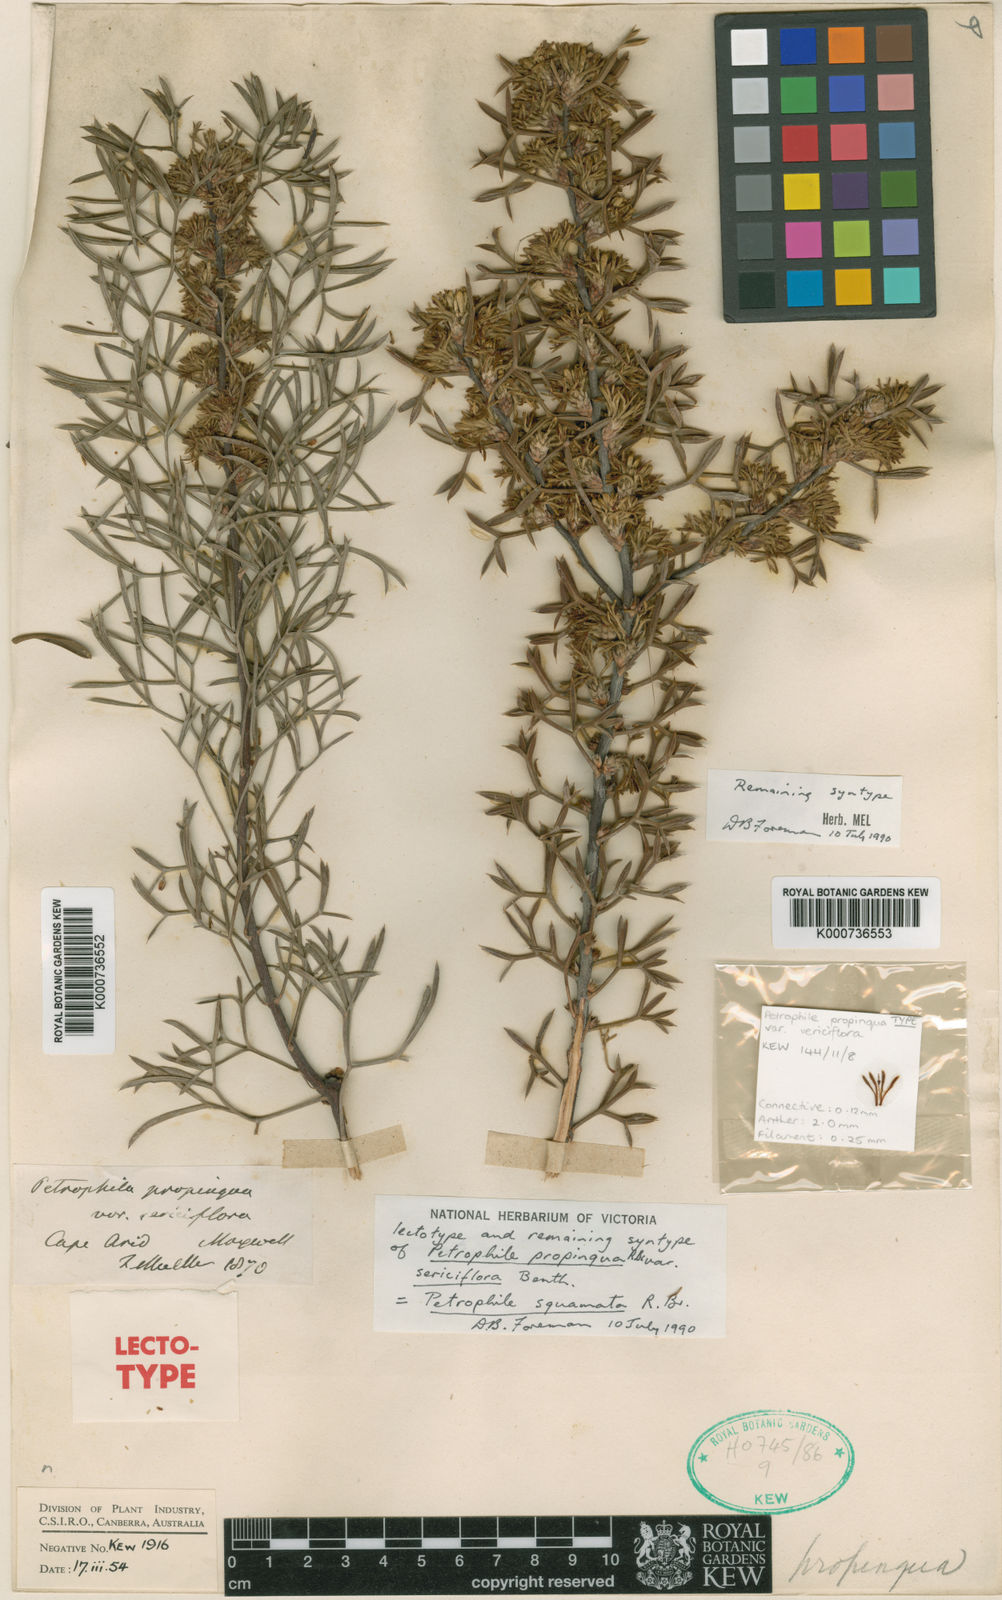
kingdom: Plantae
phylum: Tracheophyta
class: Magnoliopsida
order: Proteales
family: Proteaceae
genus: Petrophile
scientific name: Petrophile squamata
